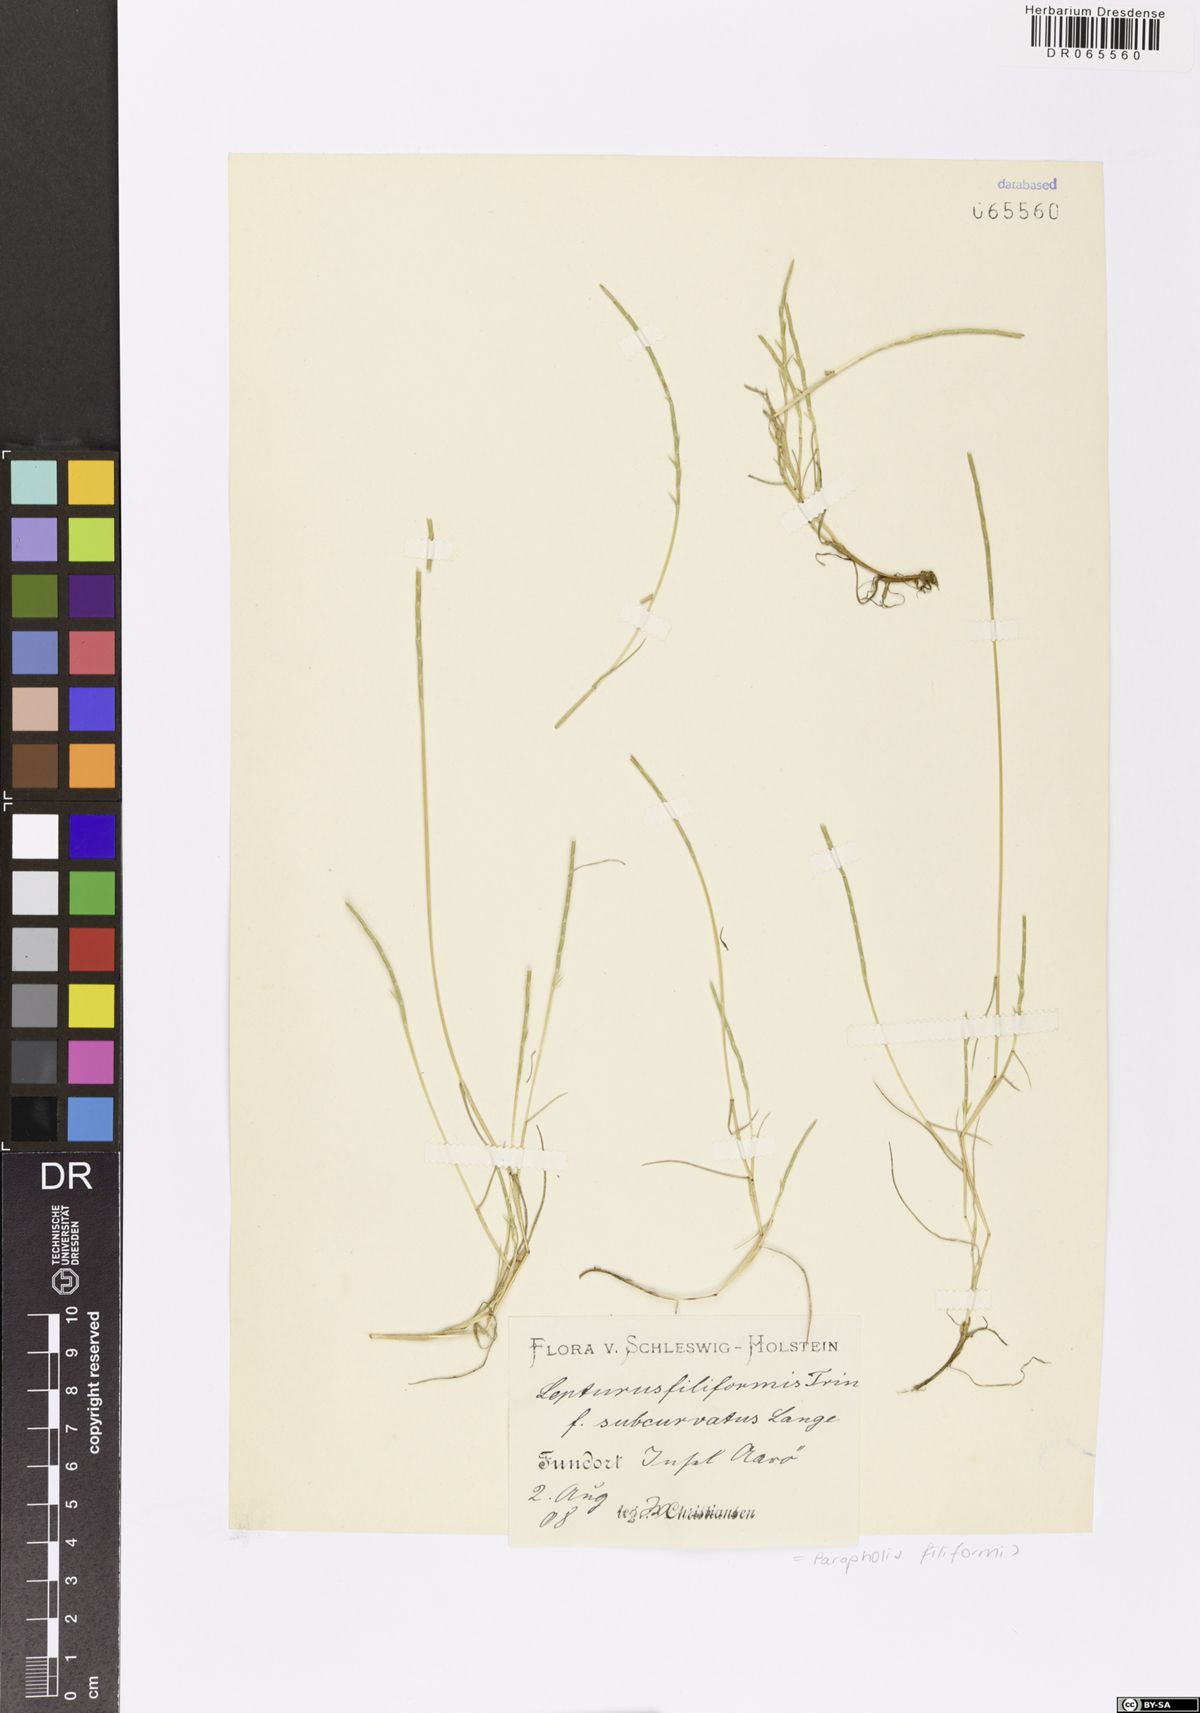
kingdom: Plantae
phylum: Tracheophyta
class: Liliopsida
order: Poales
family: Poaceae
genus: Parapholis
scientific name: Parapholis filiformis
